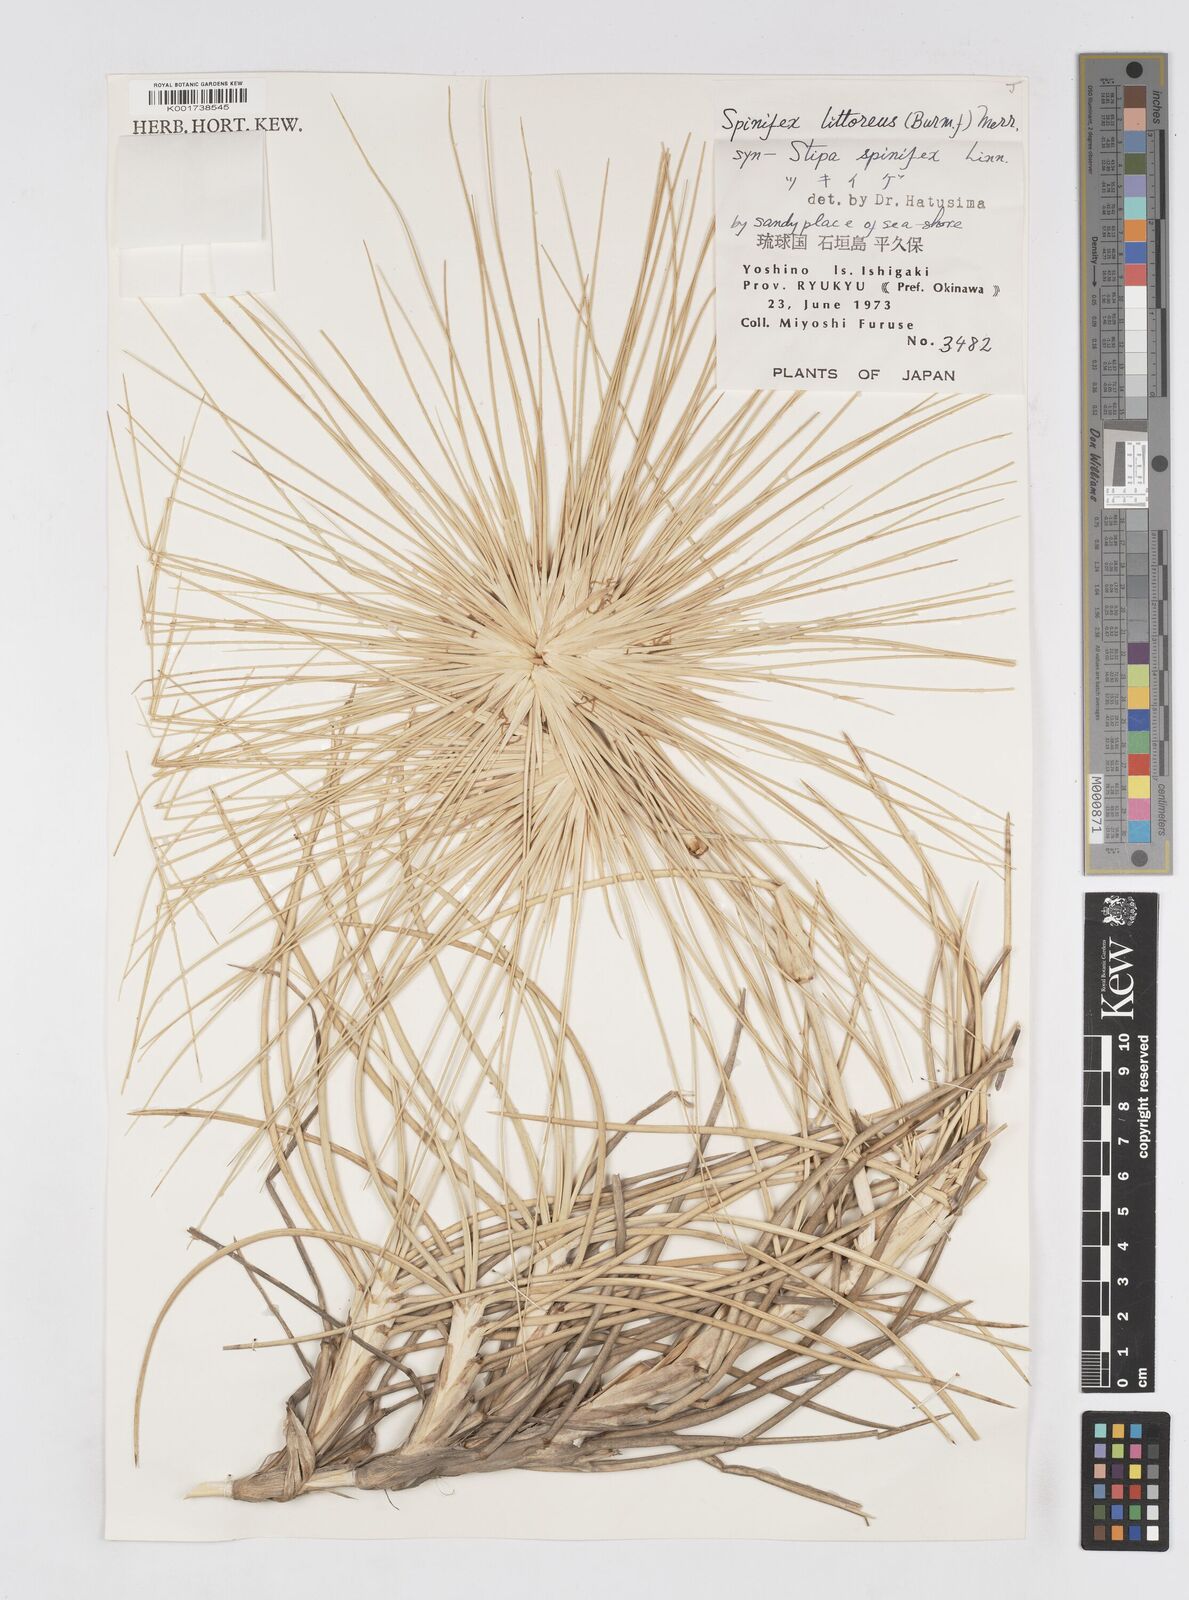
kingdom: Plantae
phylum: Tracheophyta
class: Liliopsida
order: Poales
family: Poaceae
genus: Spinifex
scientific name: Spinifex littoreus
